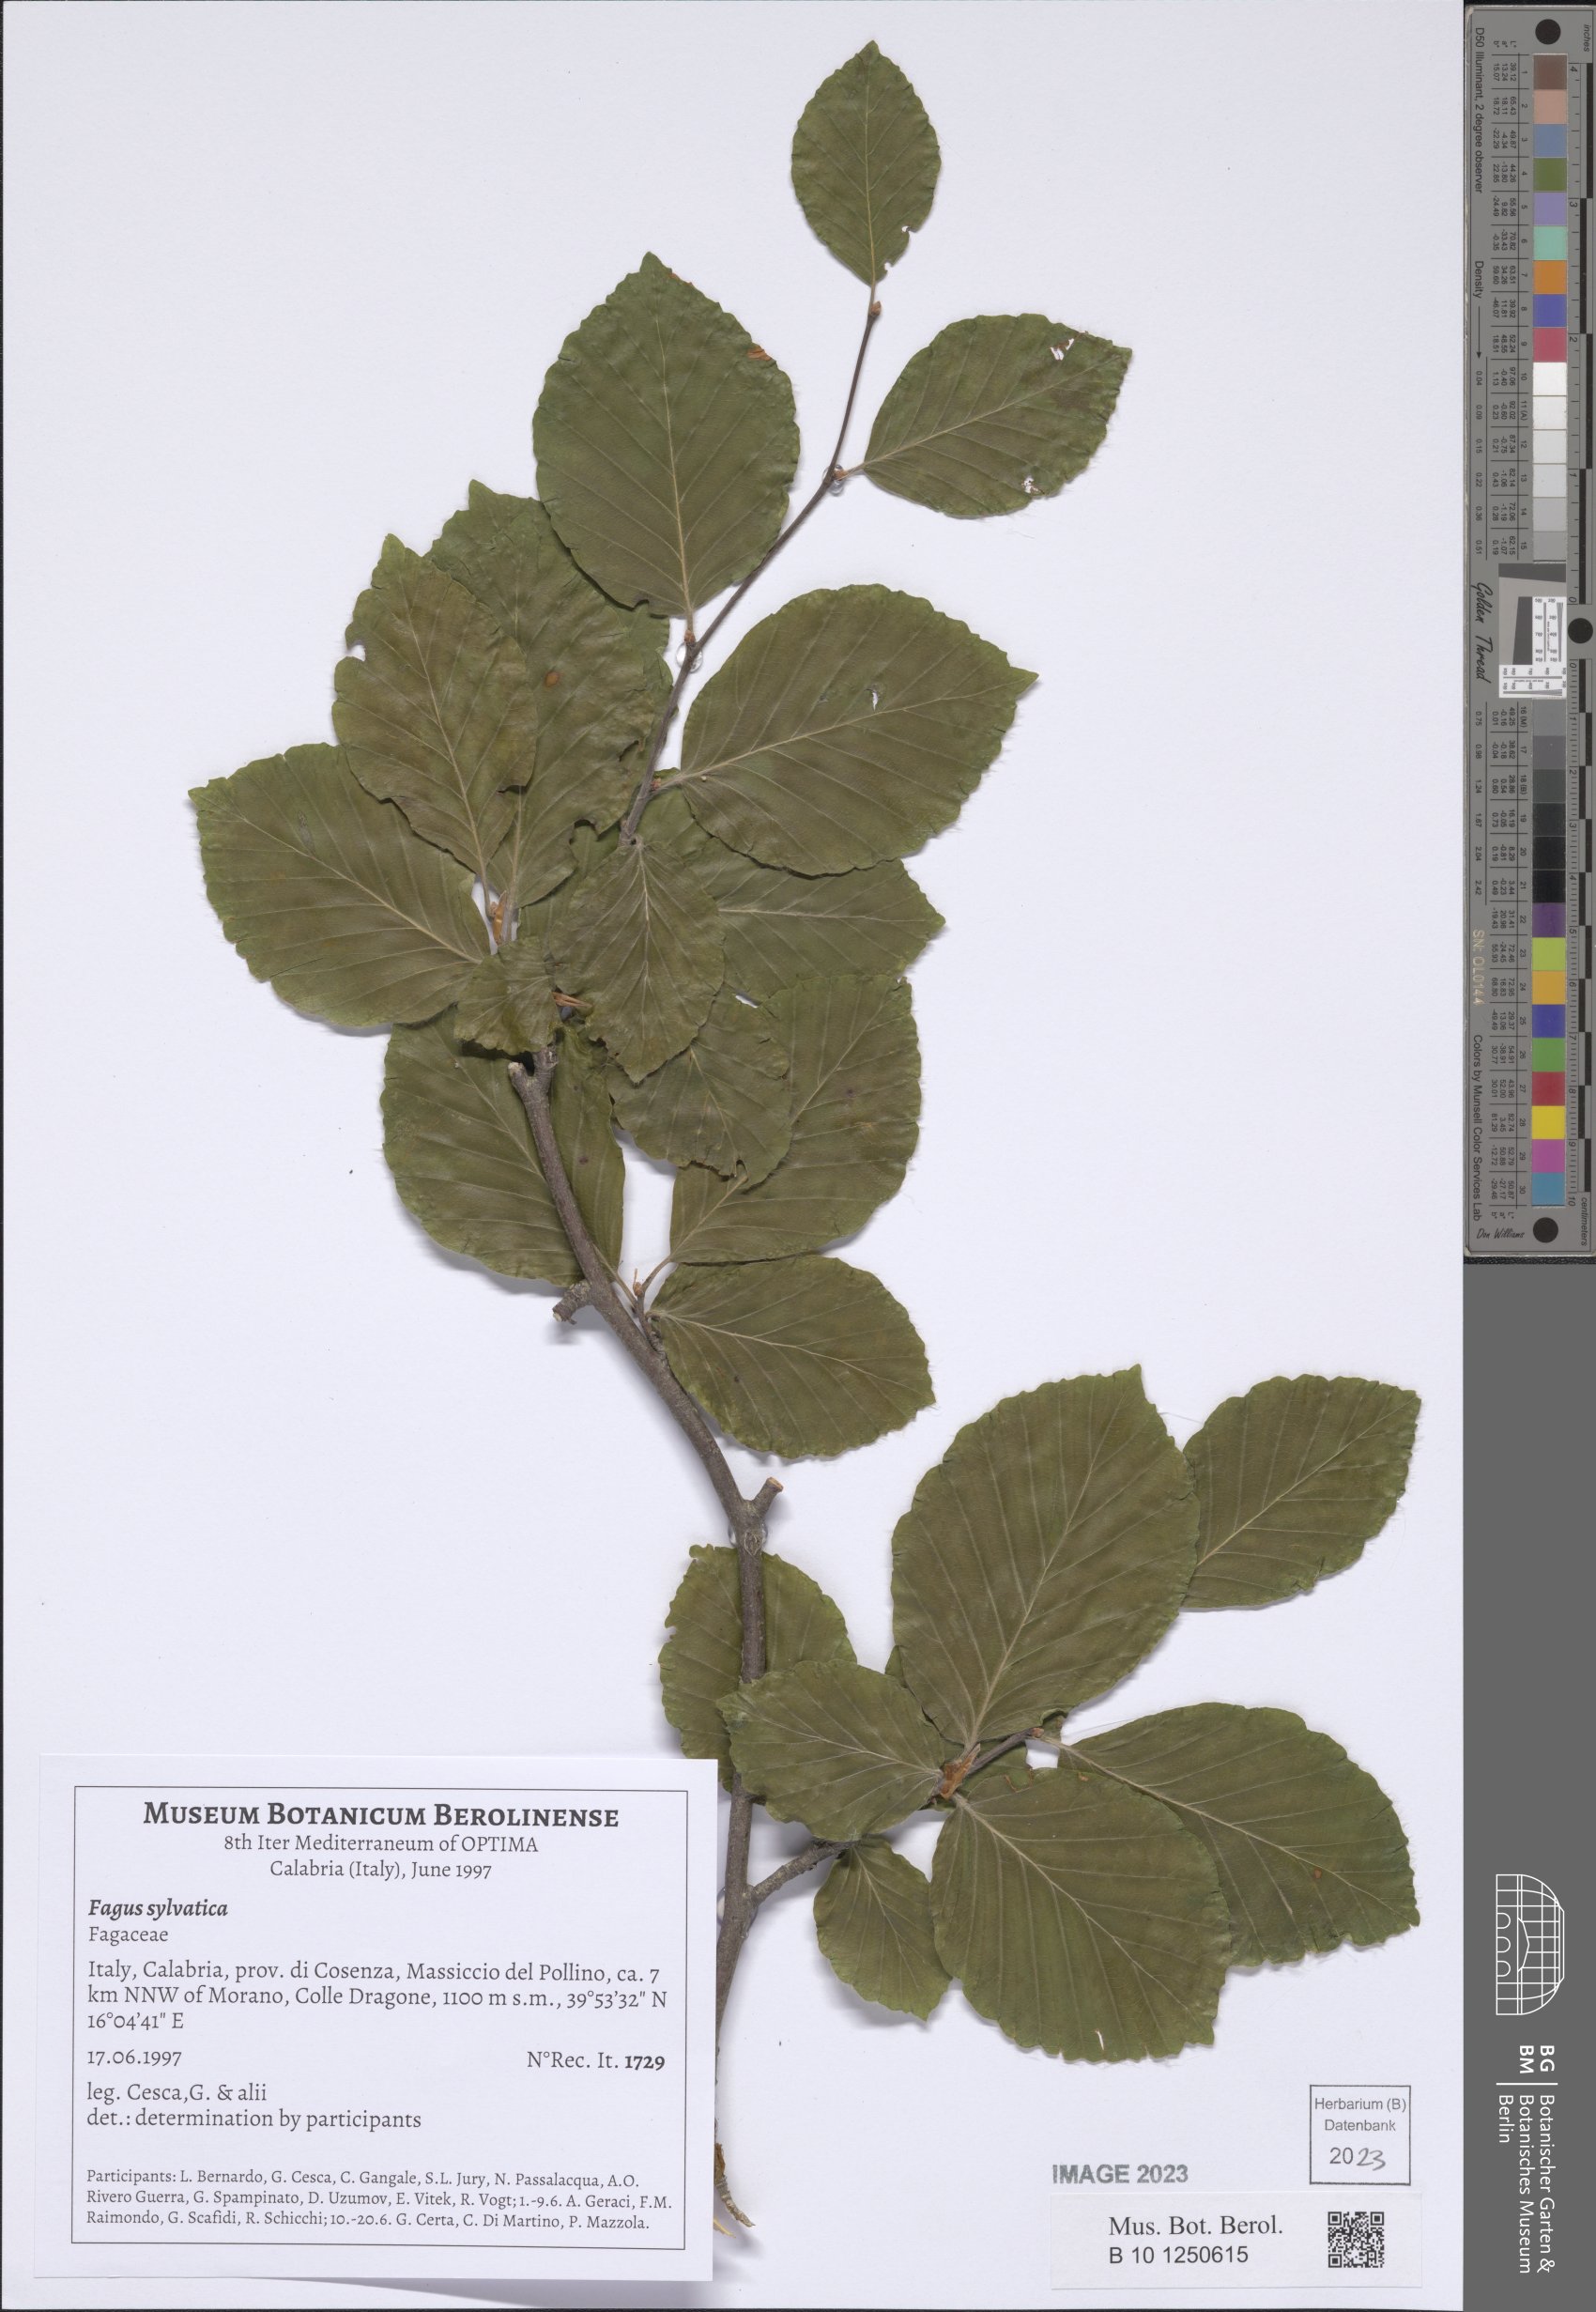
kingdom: Plantae
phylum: Tracheophyta
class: Magnoliopsida
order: Fagales
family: Fagaceae
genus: Fagus
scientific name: Fagus sylvatica
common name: Beech
